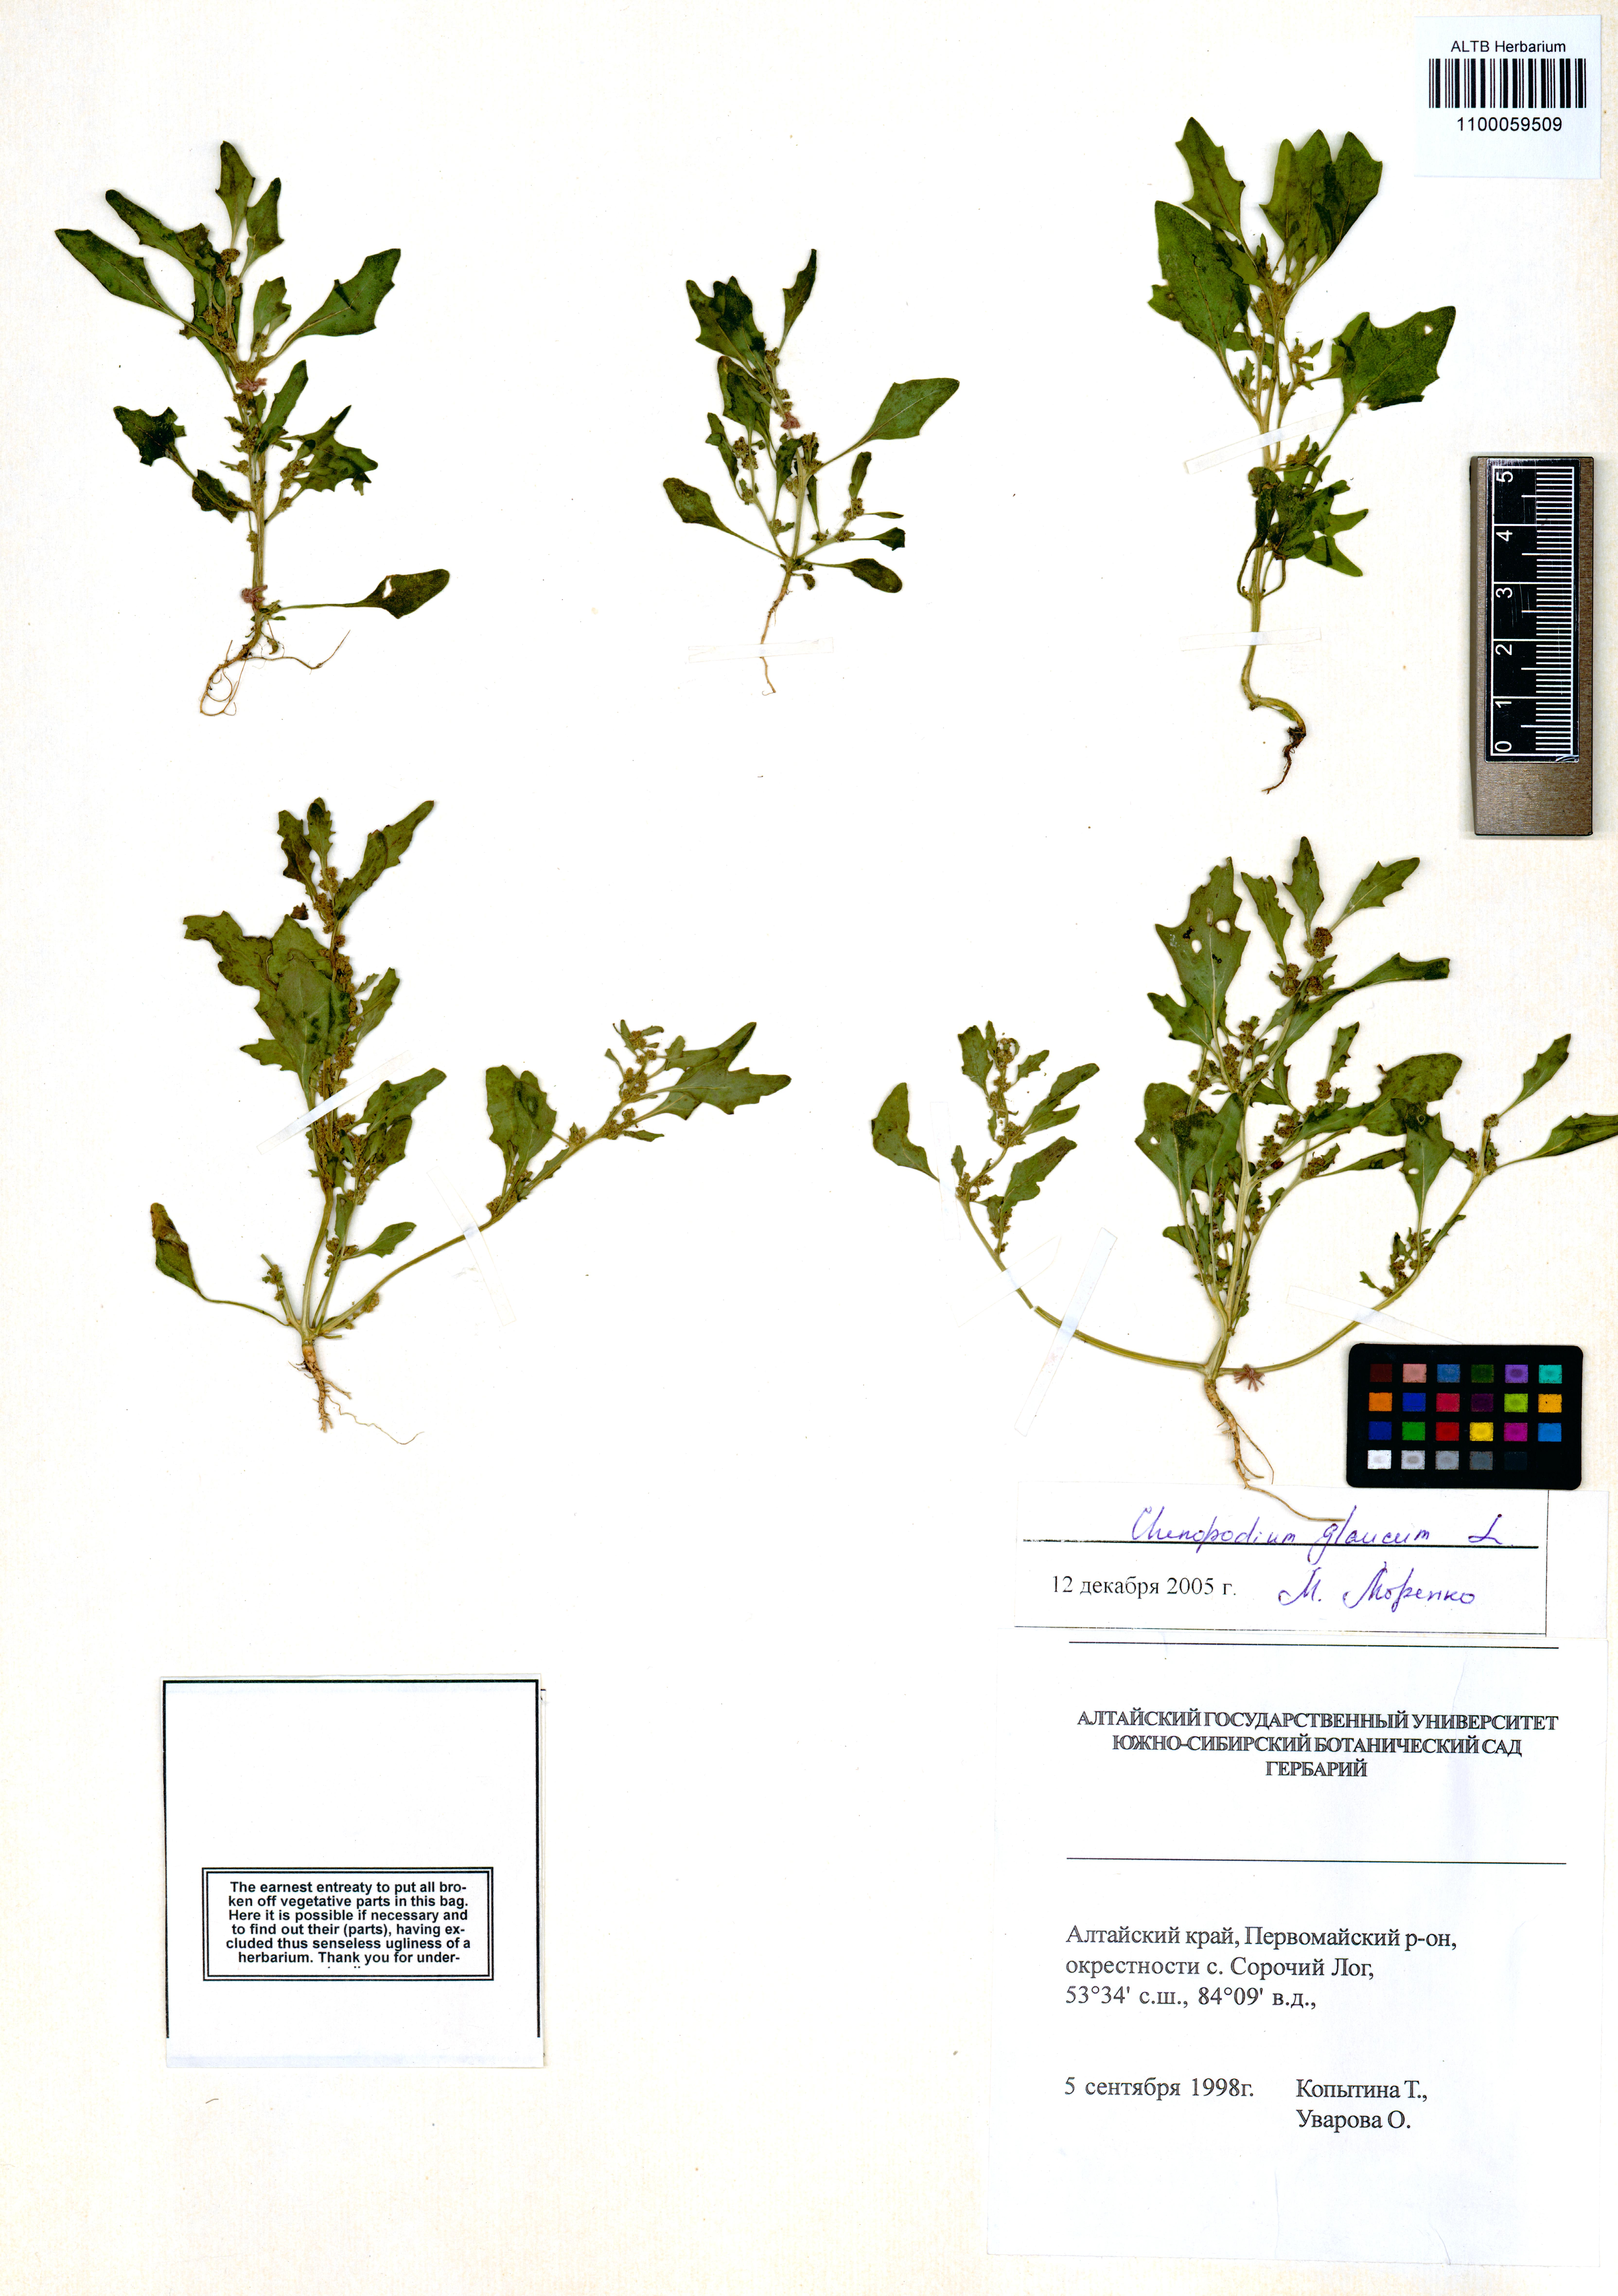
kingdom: Plantae
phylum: Tracheophyta
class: Magnoliopsida
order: Caryophyllales
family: Amaranthaceae
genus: Oxybasis
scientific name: Oxybasis glauca
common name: Glaucous goosefoot
